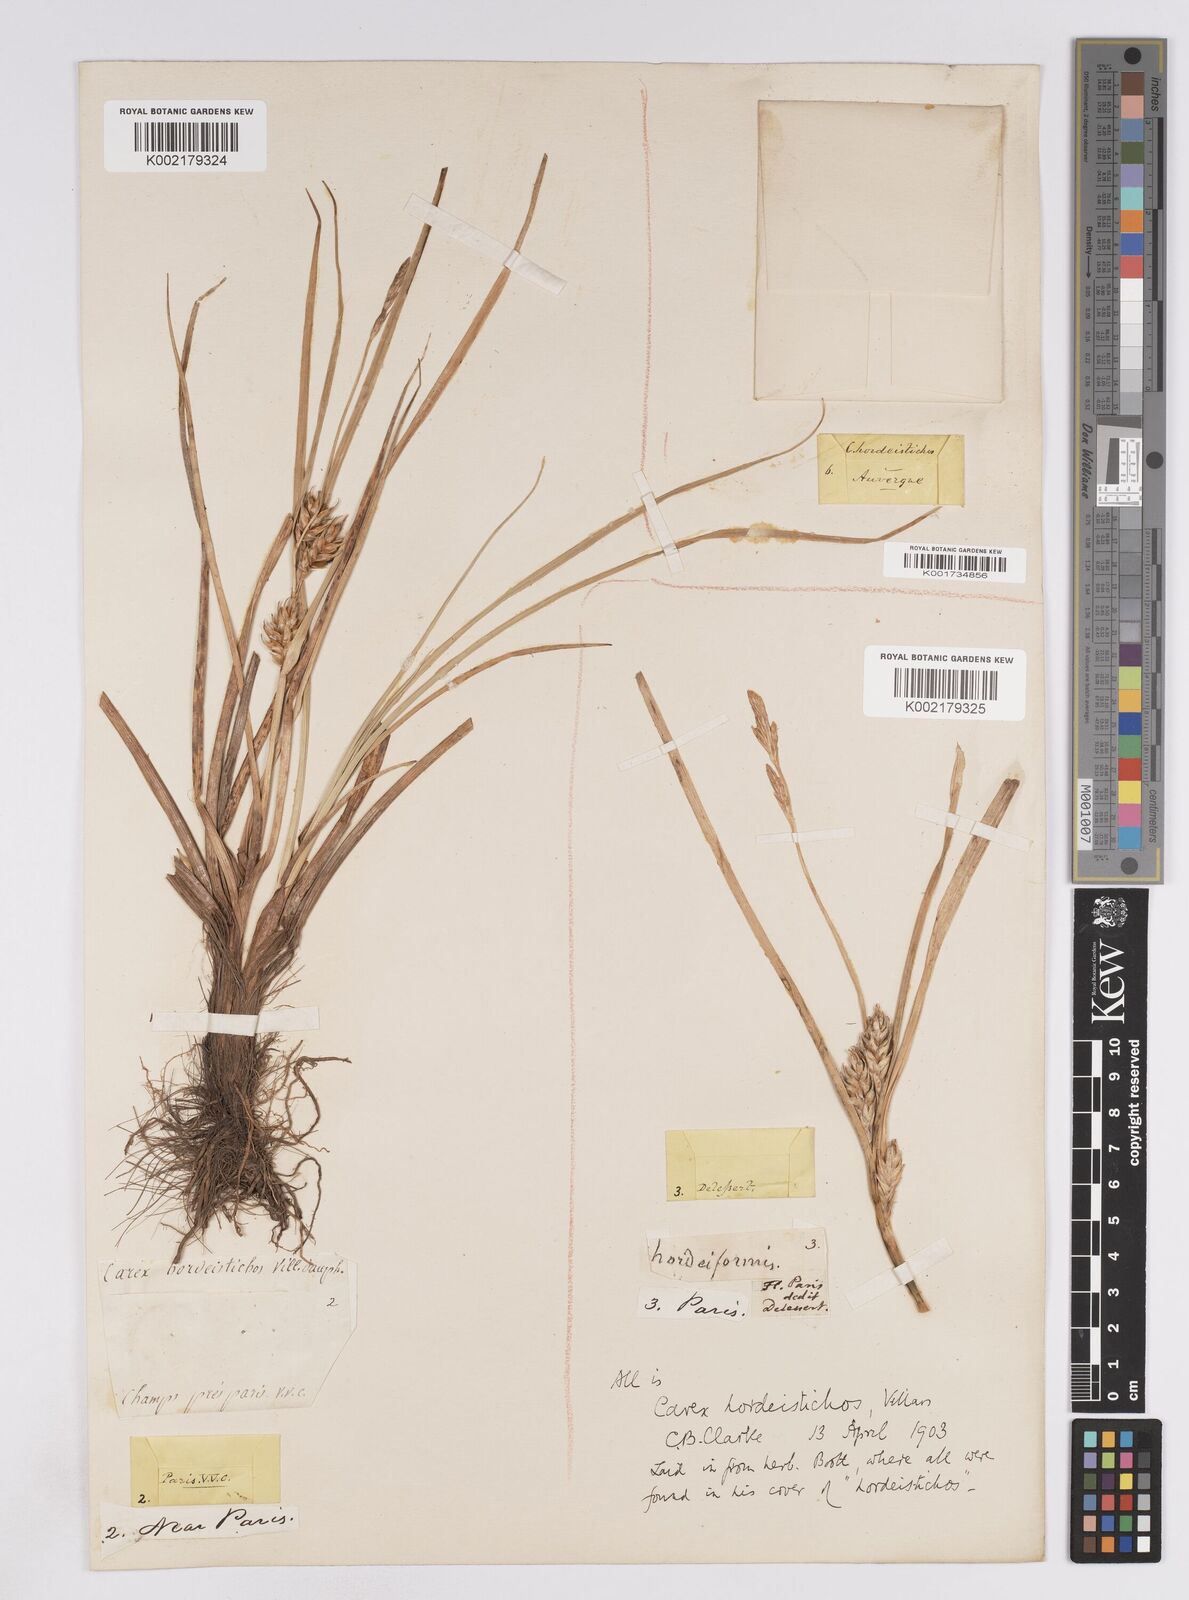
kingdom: Plantae
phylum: Tracheophyta
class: Liliopsida
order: Poales
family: Cyperaceae
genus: Carex
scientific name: Carex hordeistichos
